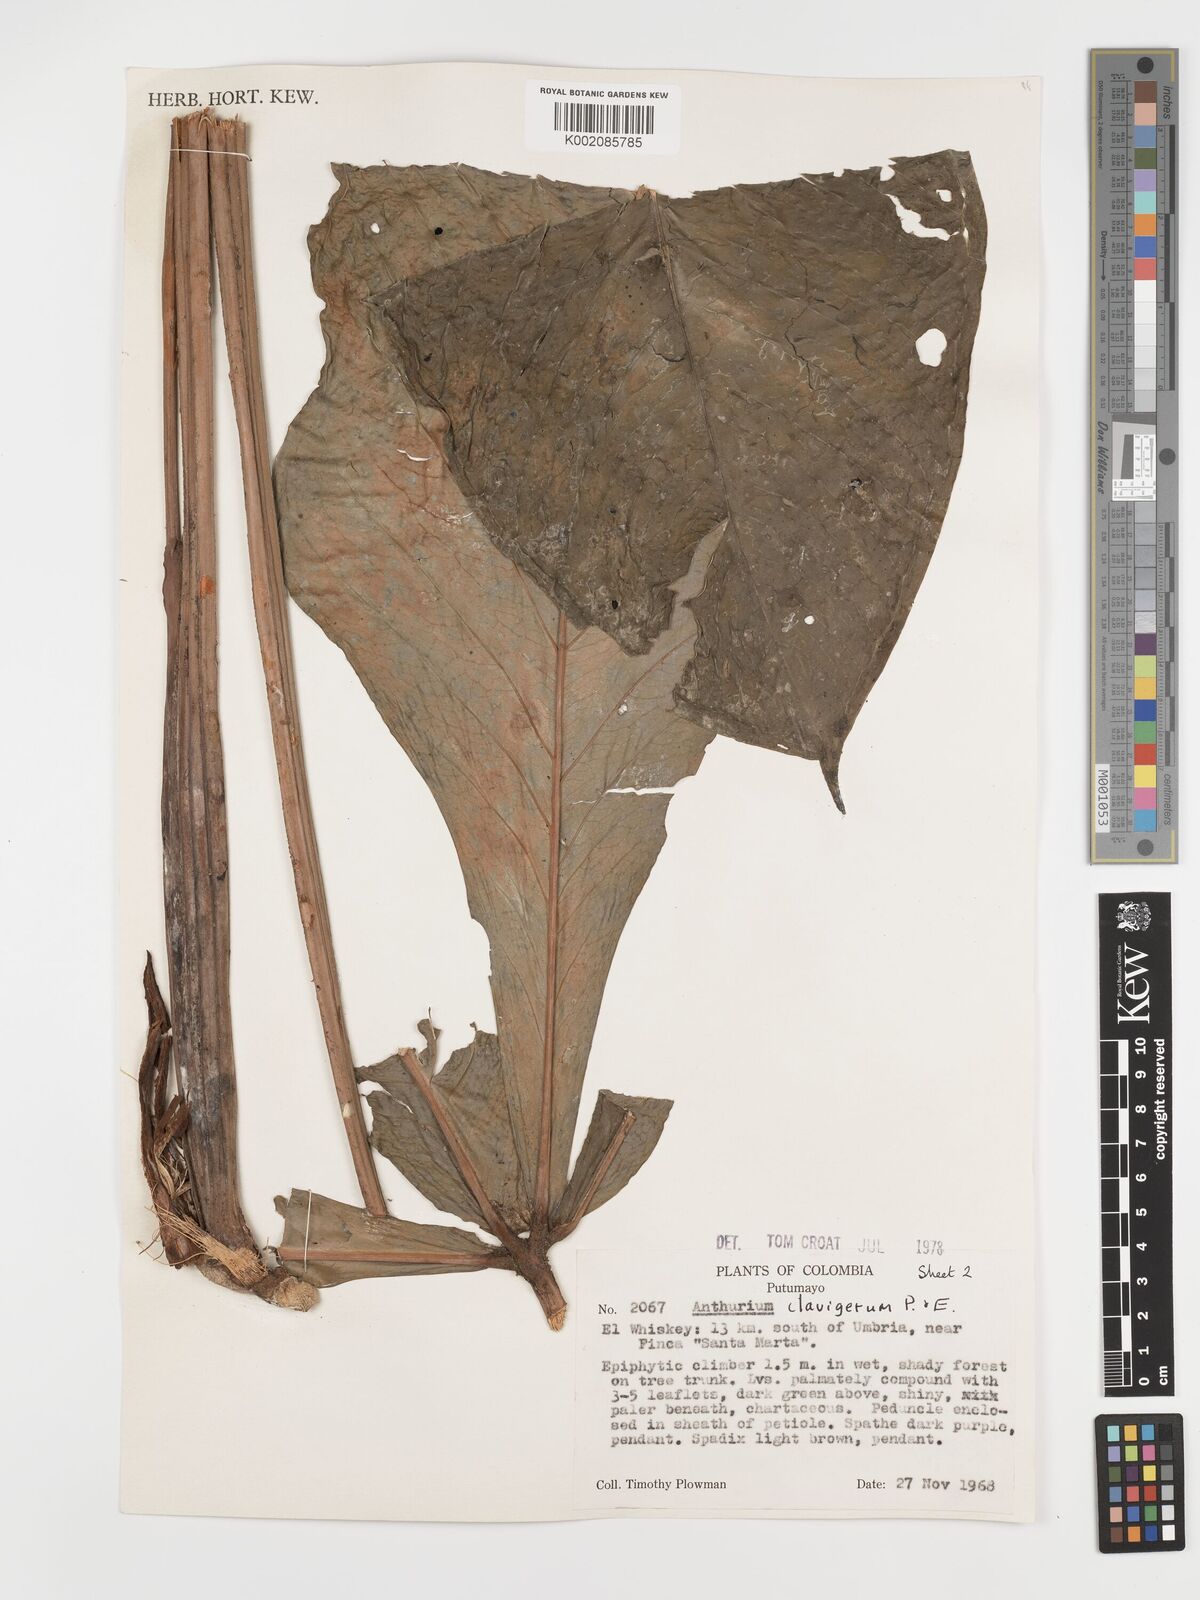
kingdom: Plantae
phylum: Tracheophyta
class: Liliopsida
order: Alismatales
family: Araceae
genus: Anthurium
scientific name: Anthurium clavigerum
